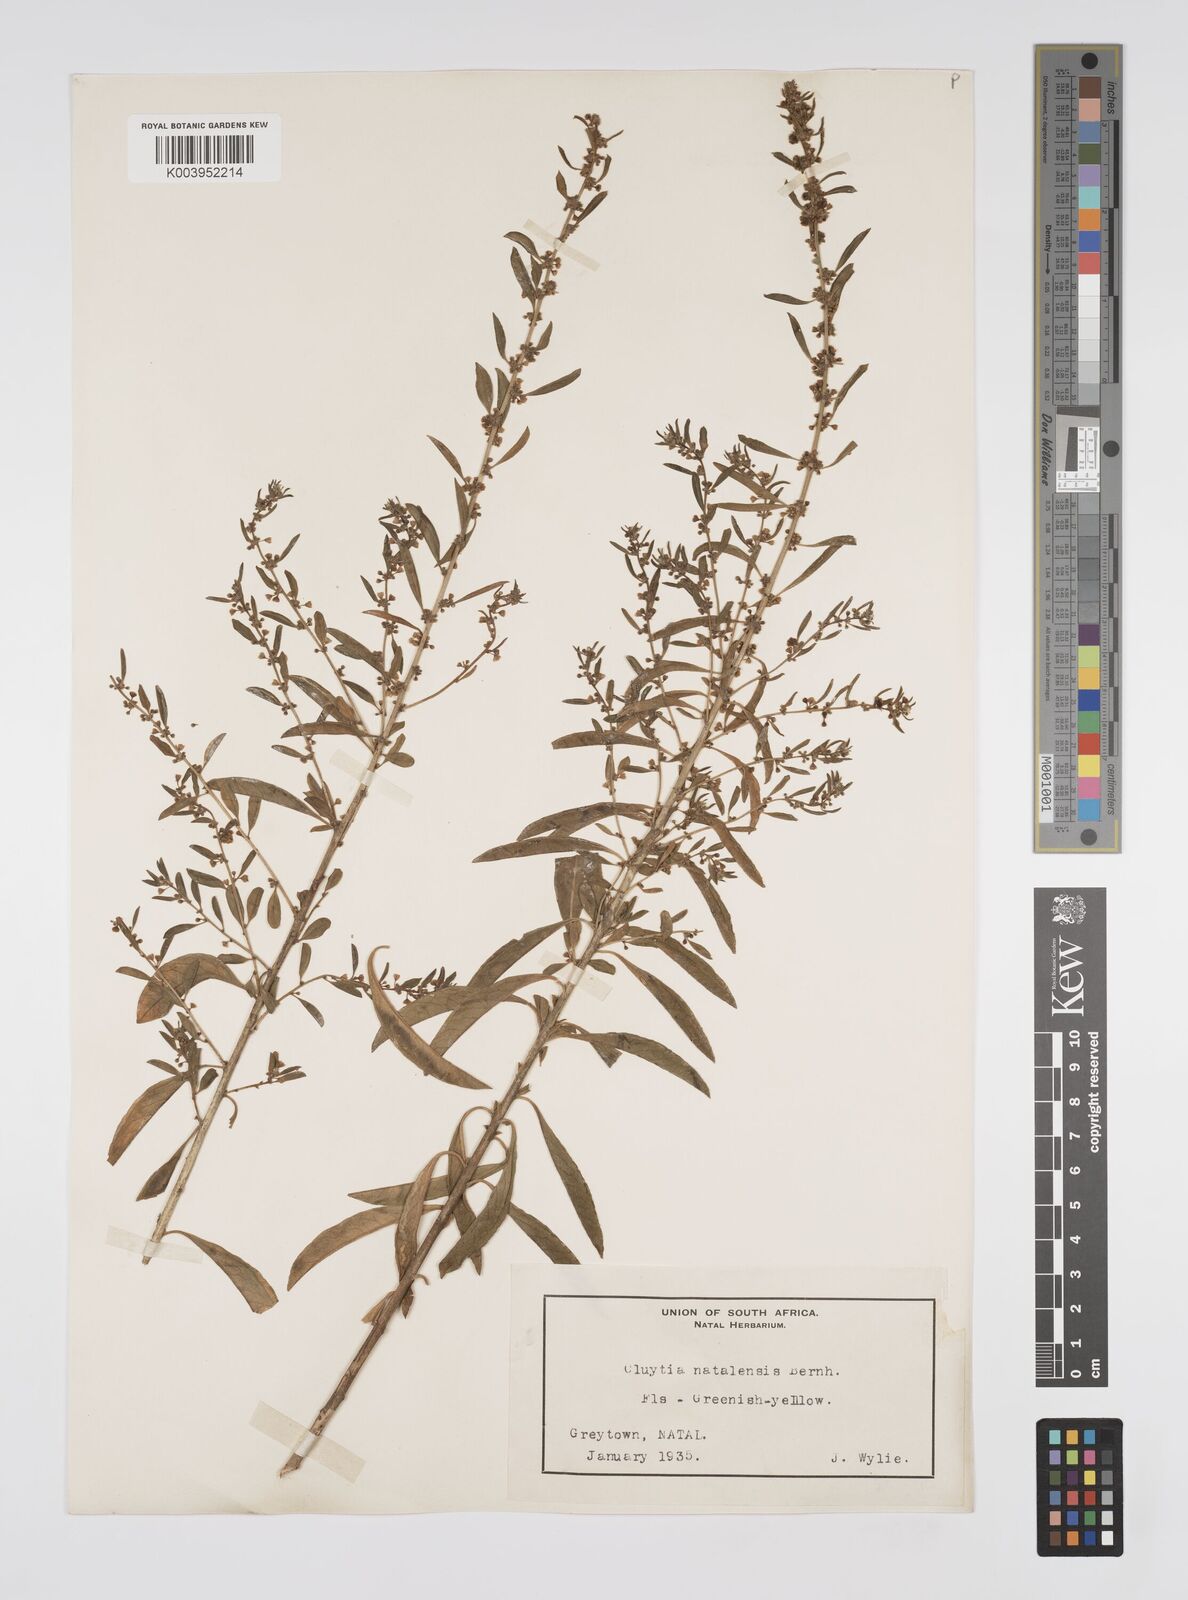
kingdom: Plantae
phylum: Tracheophyta
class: Magnoliopsida
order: Malpighiales
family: Peraceae
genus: Clutia
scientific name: Clutia natalensis
